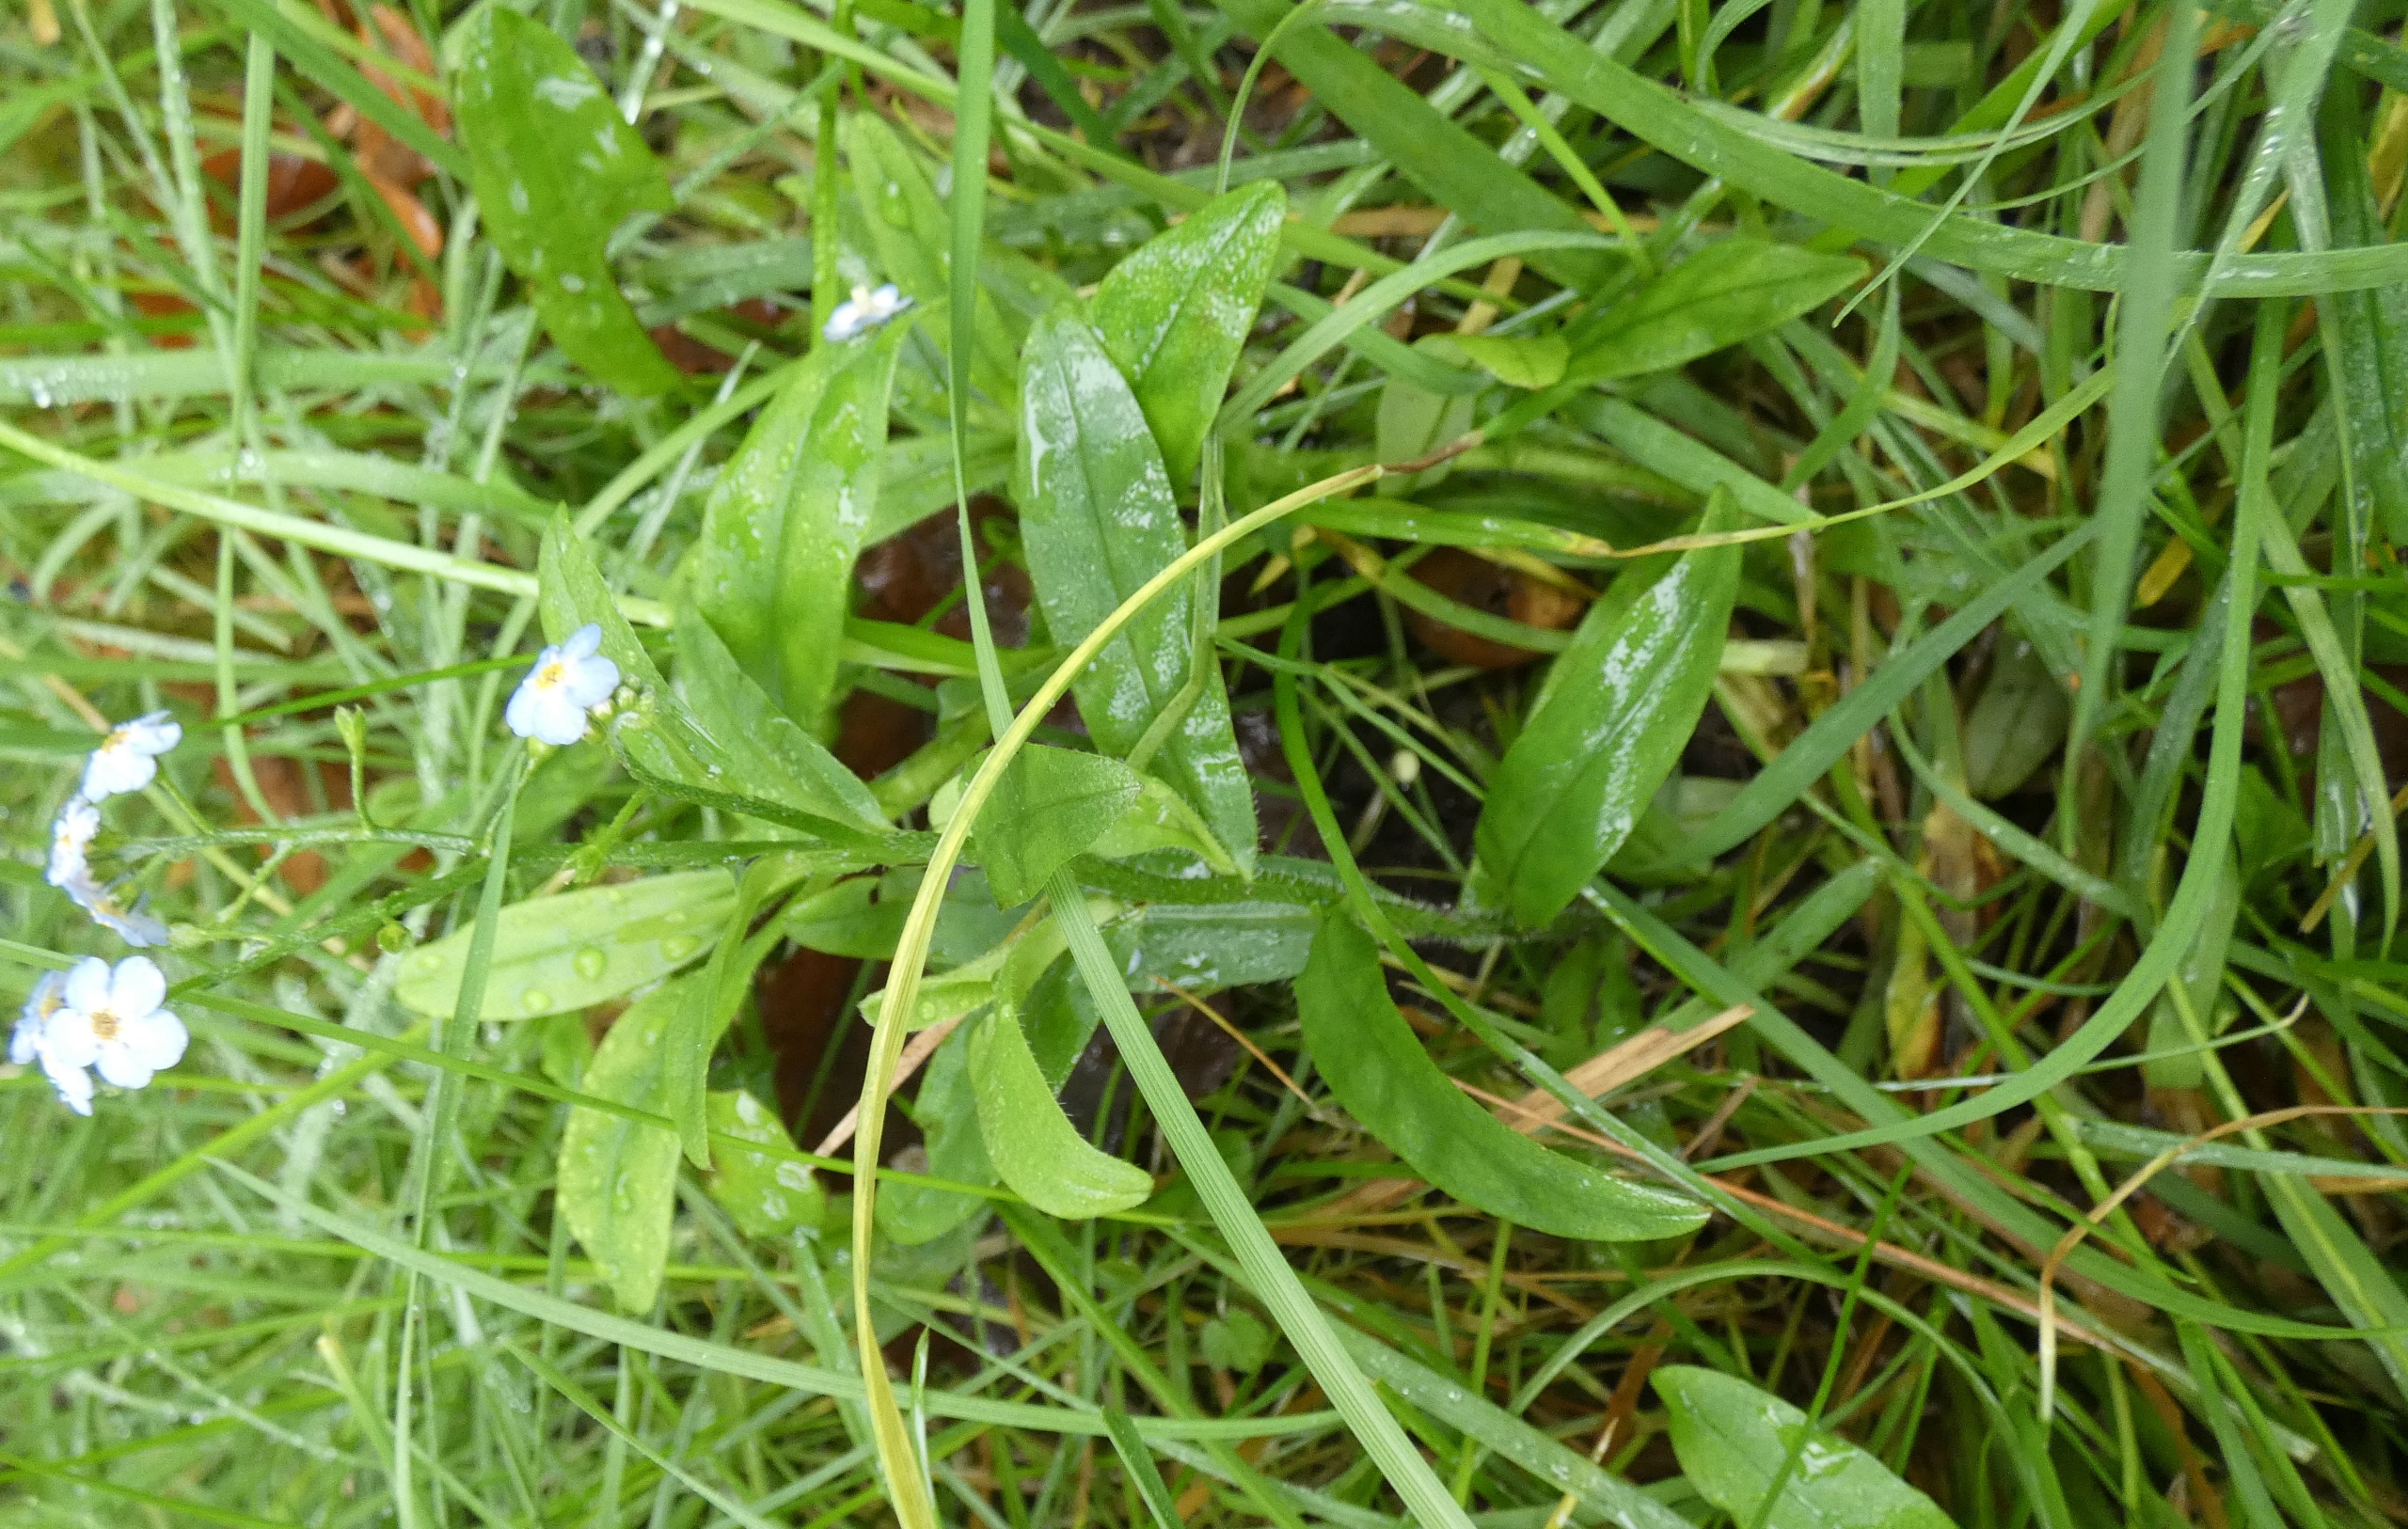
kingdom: Plantae
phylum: Tracheophyta
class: Magnoliopsida
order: Boraginales
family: Boraginaceae
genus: Myosotis
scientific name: Myosotis scorpioides
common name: Eng-forglemmigej
